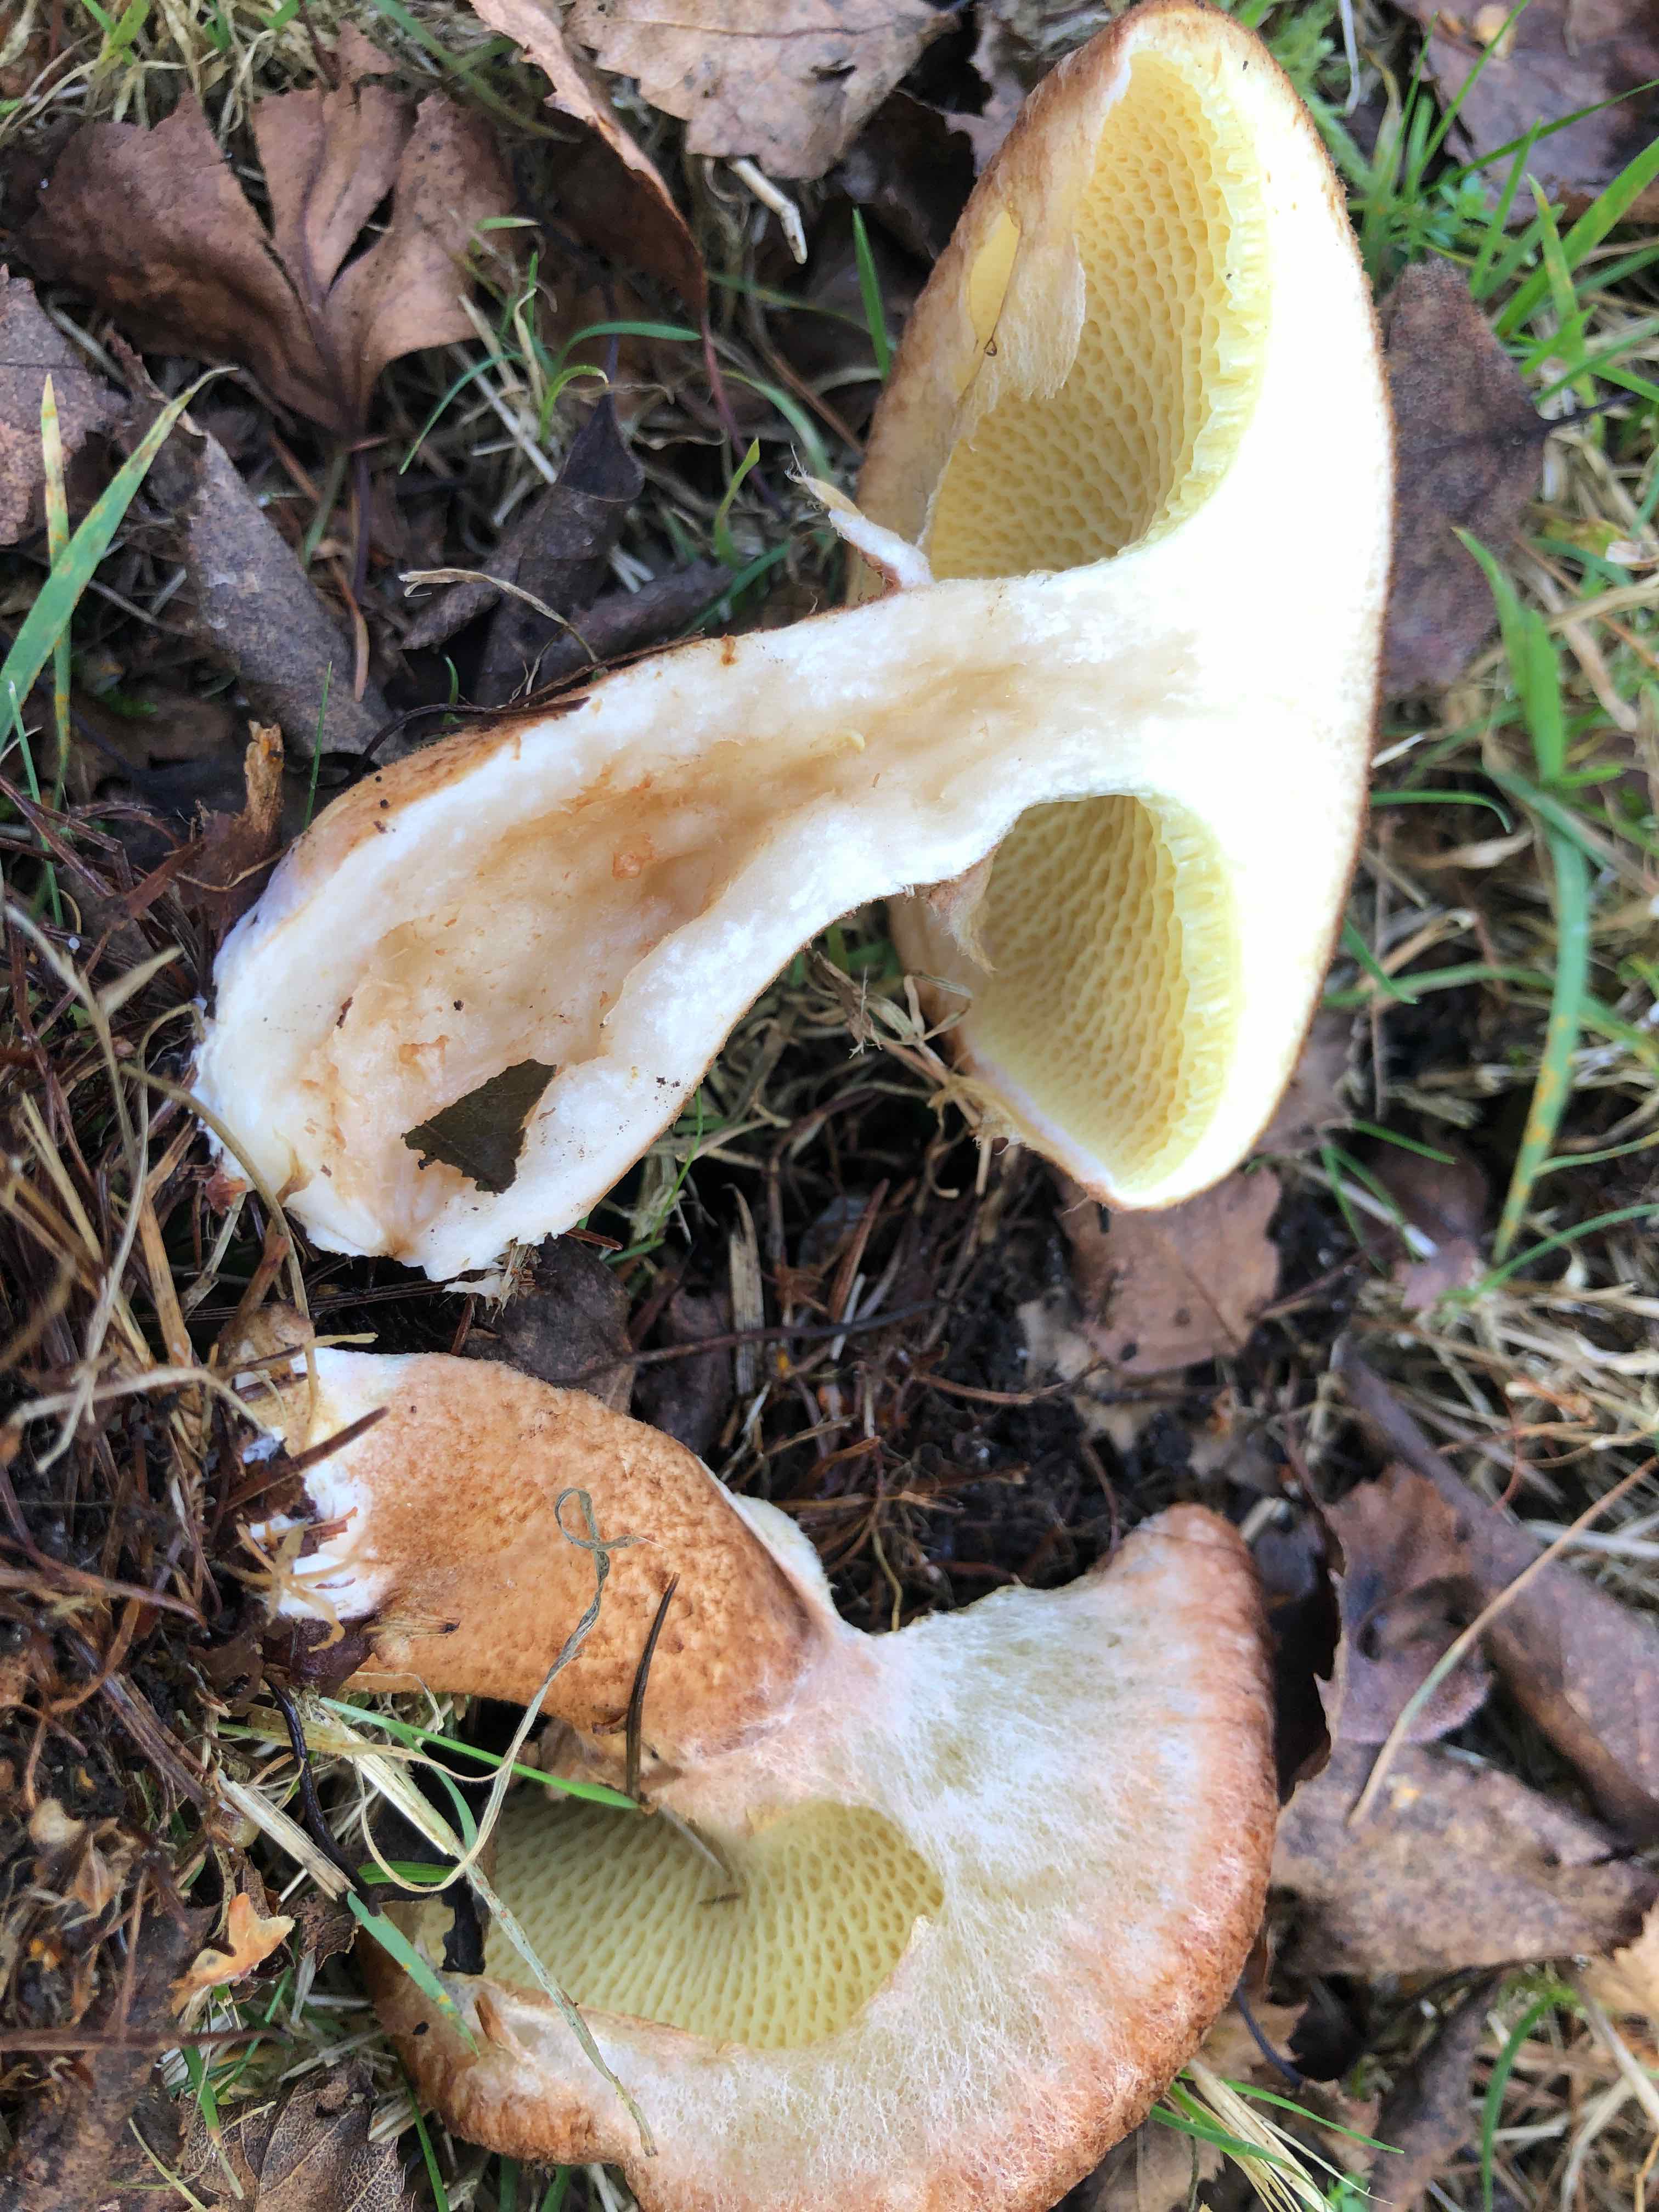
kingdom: Fungi
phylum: Basidiomycota
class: Agaricomycetes
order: Boletales
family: Suillaceae
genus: Suillus
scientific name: Suillus cavipes
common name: hulstokket slimrørhat
